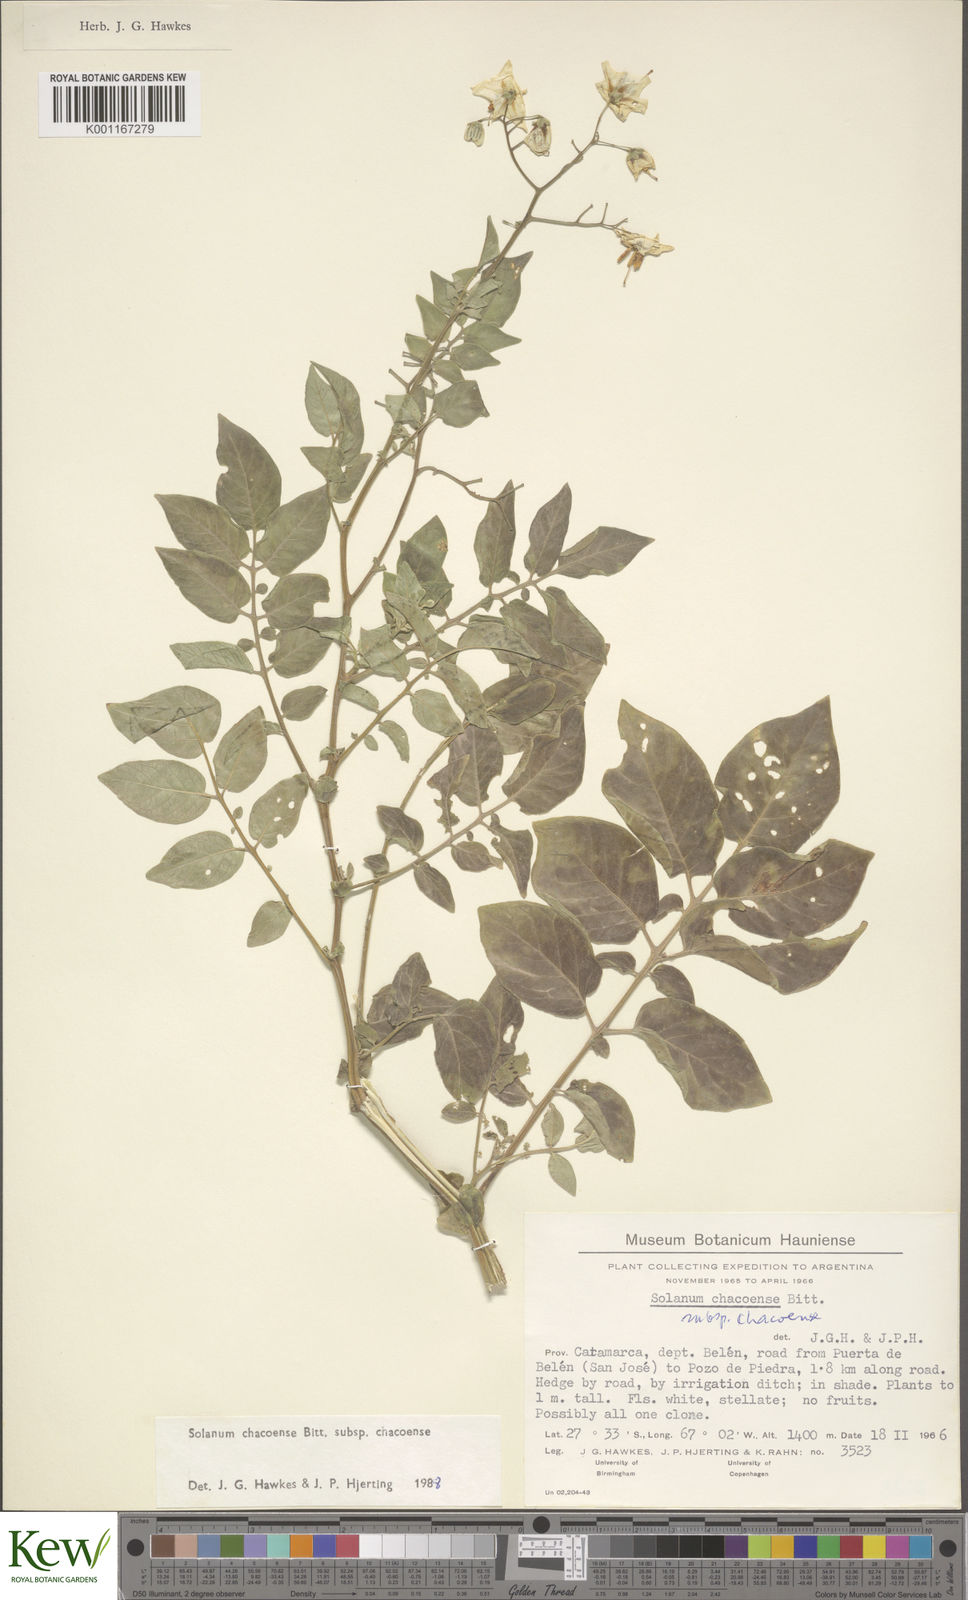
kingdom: Plantae
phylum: Tracheophyta
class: Magnoliopsida
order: Solanales
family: Solanaceae
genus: Solanum
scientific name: Solanum chacoense
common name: Chaco potato
